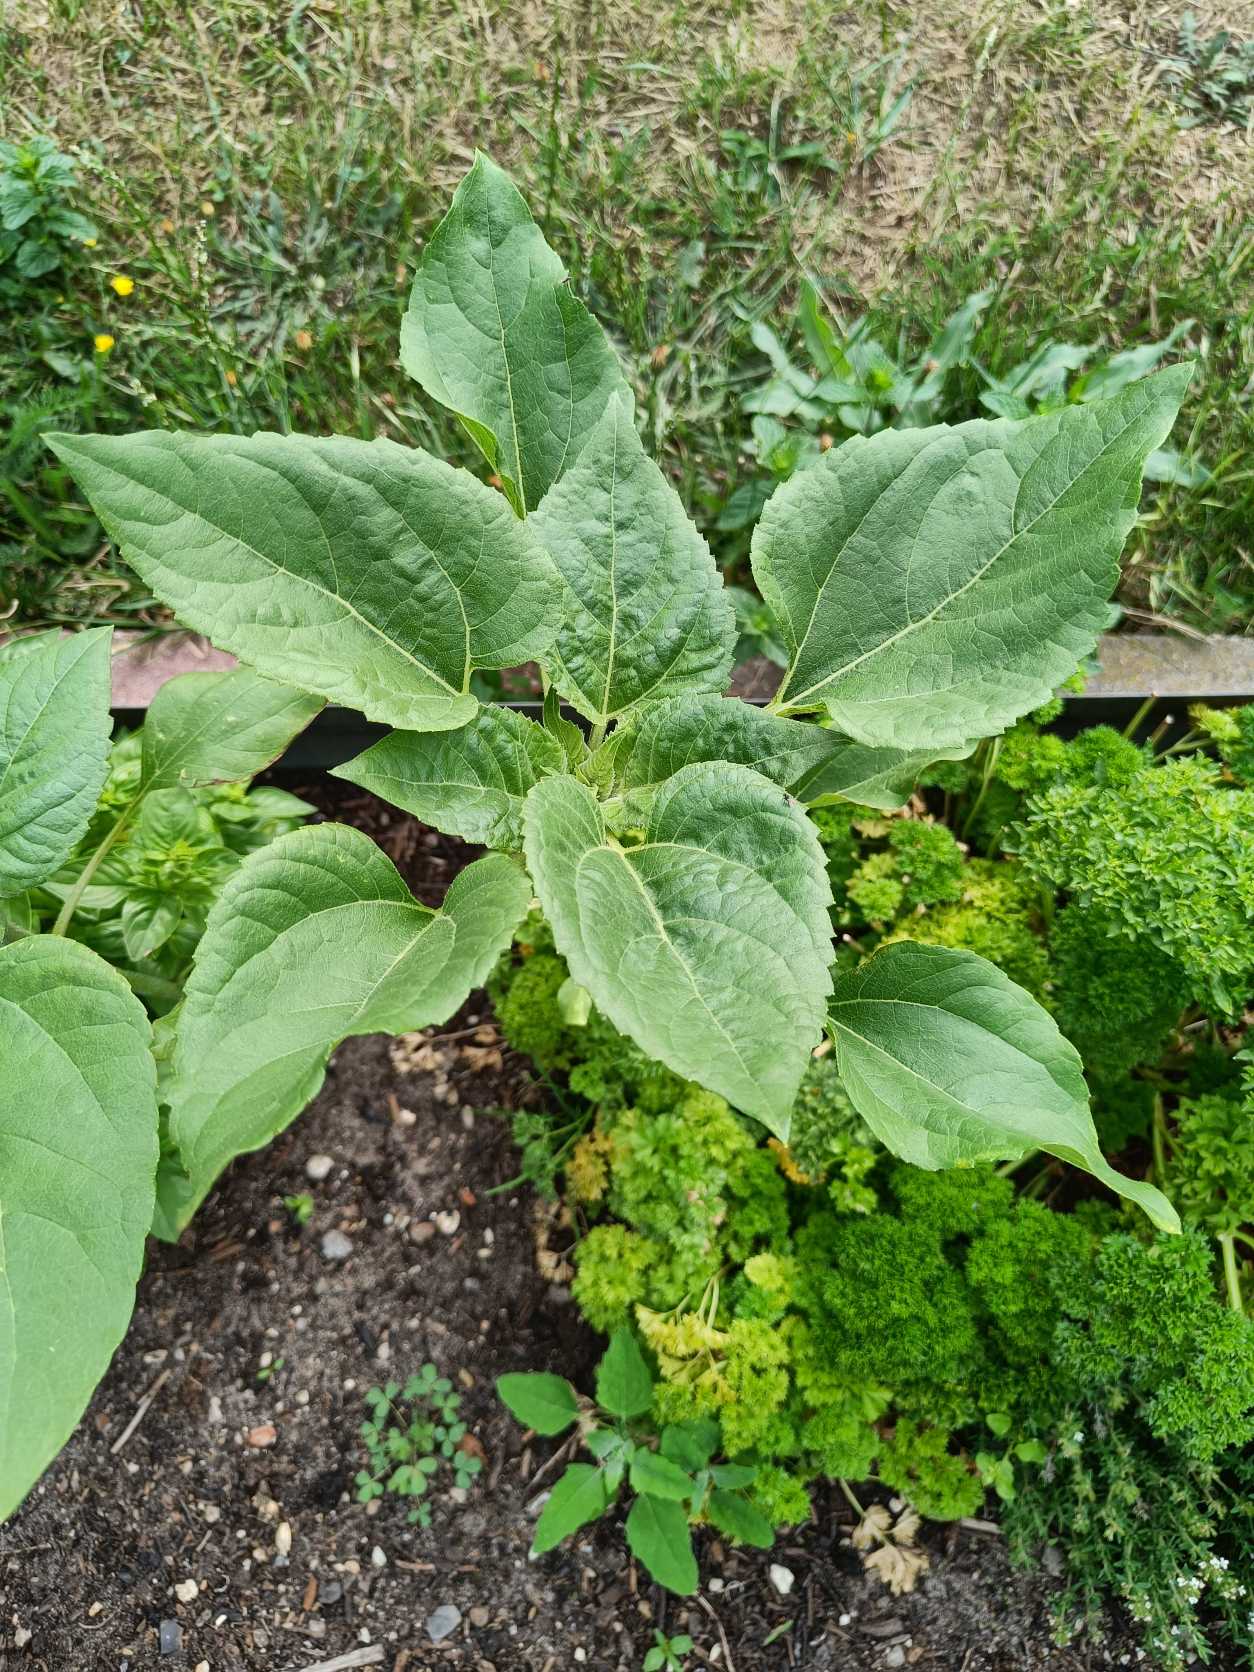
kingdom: Plantae
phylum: Tracheophyta
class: Magnoliopsida
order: Asterales
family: Asteraceae
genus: Helianthus
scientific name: Helianthus annuus
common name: Solsikke
